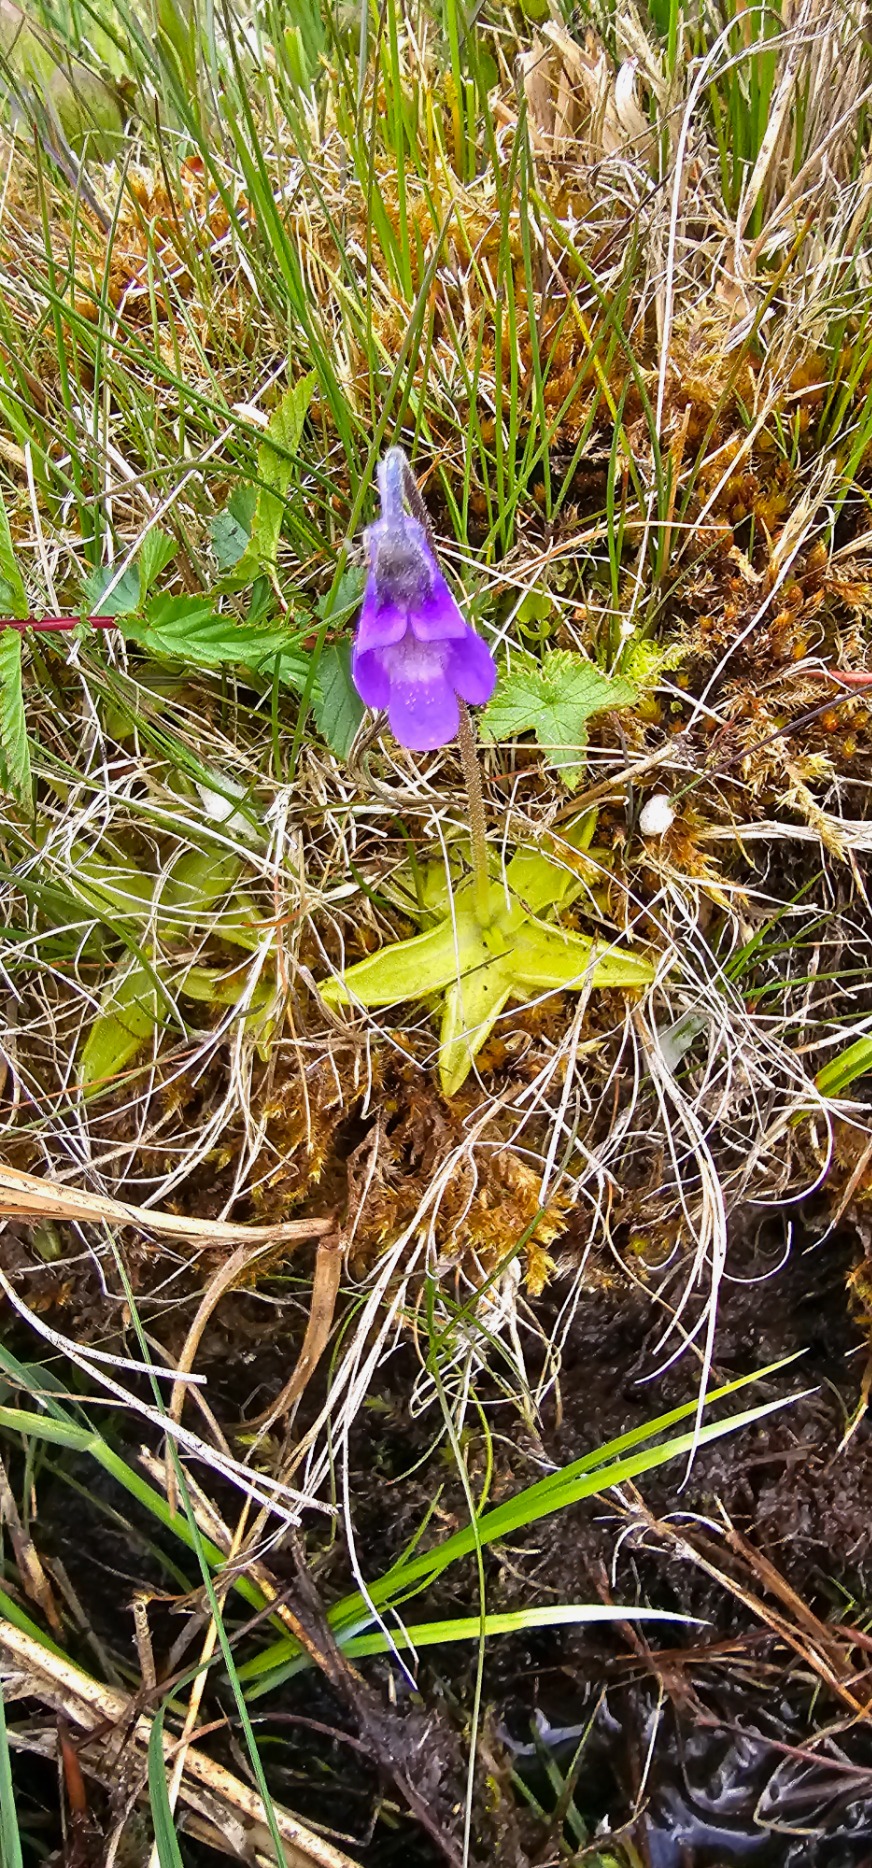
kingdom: Plantae
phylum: Tracheophyta
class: Magnoliopsida
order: Lamiales
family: Lentibulariaceae
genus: Pinguicula
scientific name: Pinguicula vulgaris
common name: Vibefedt
